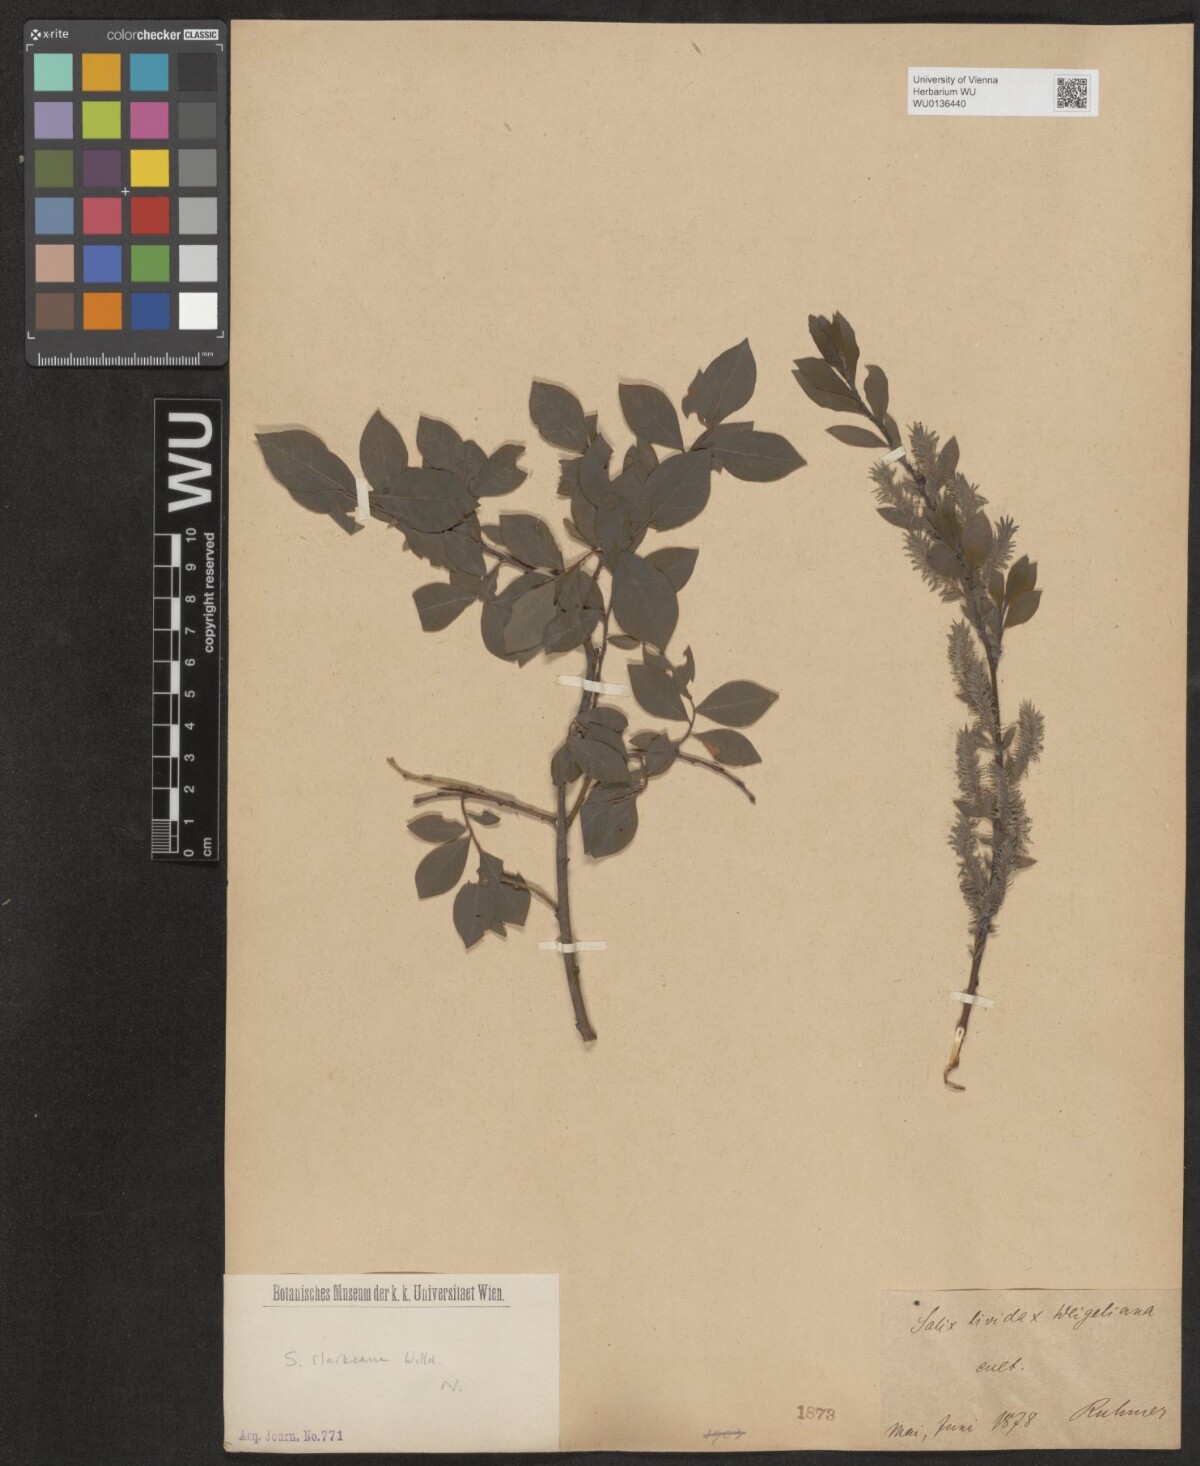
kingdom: Plantae
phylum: Tracheophyta
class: Magnoliopsida
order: Malpighiales
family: Salicaceae
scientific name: Salicaceae
